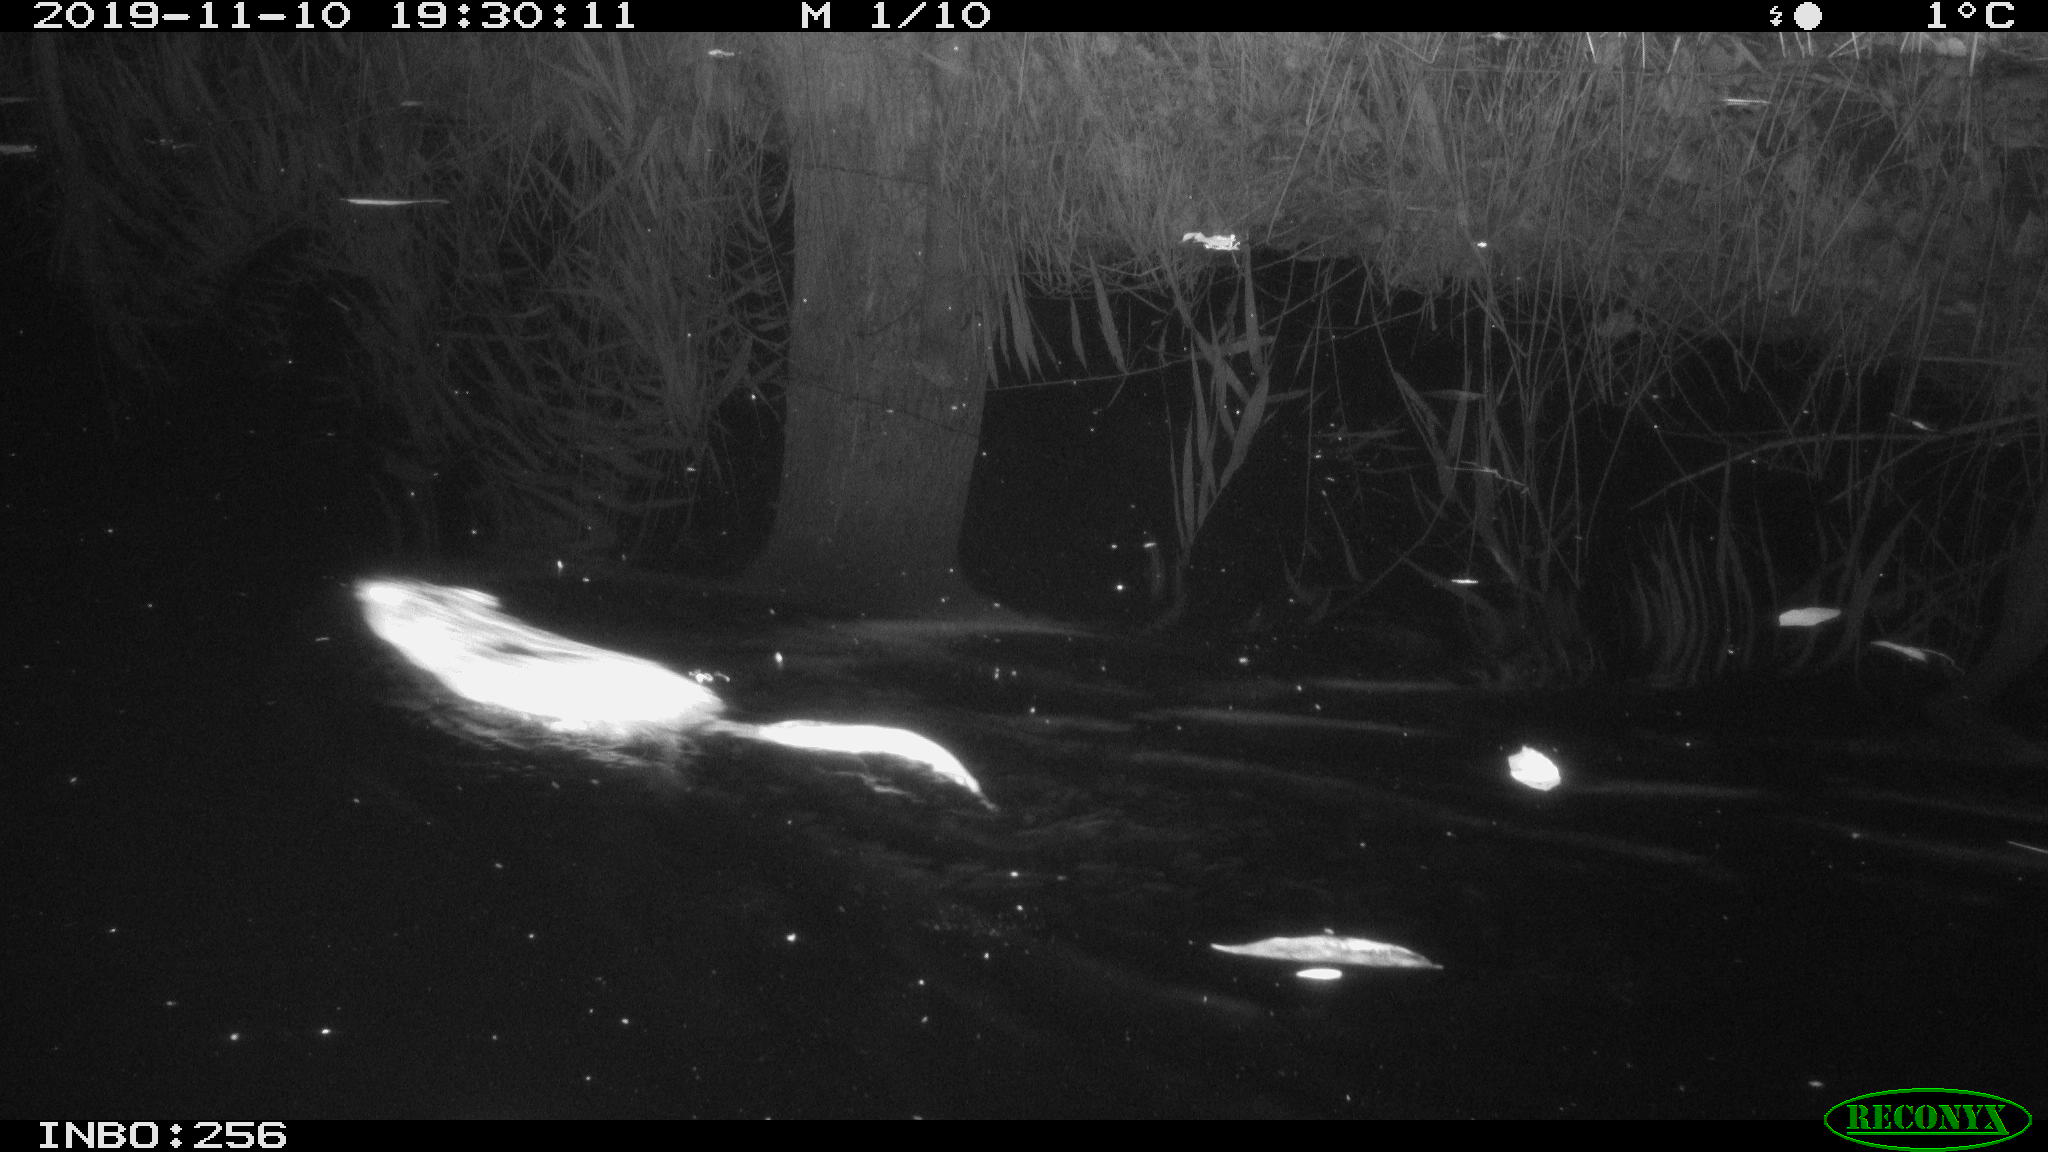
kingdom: Animalia
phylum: Chordata
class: Mammalia
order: Rodentia
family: Cricetidae
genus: Ondatra
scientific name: Ondatra zibethicus
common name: Muskrat
